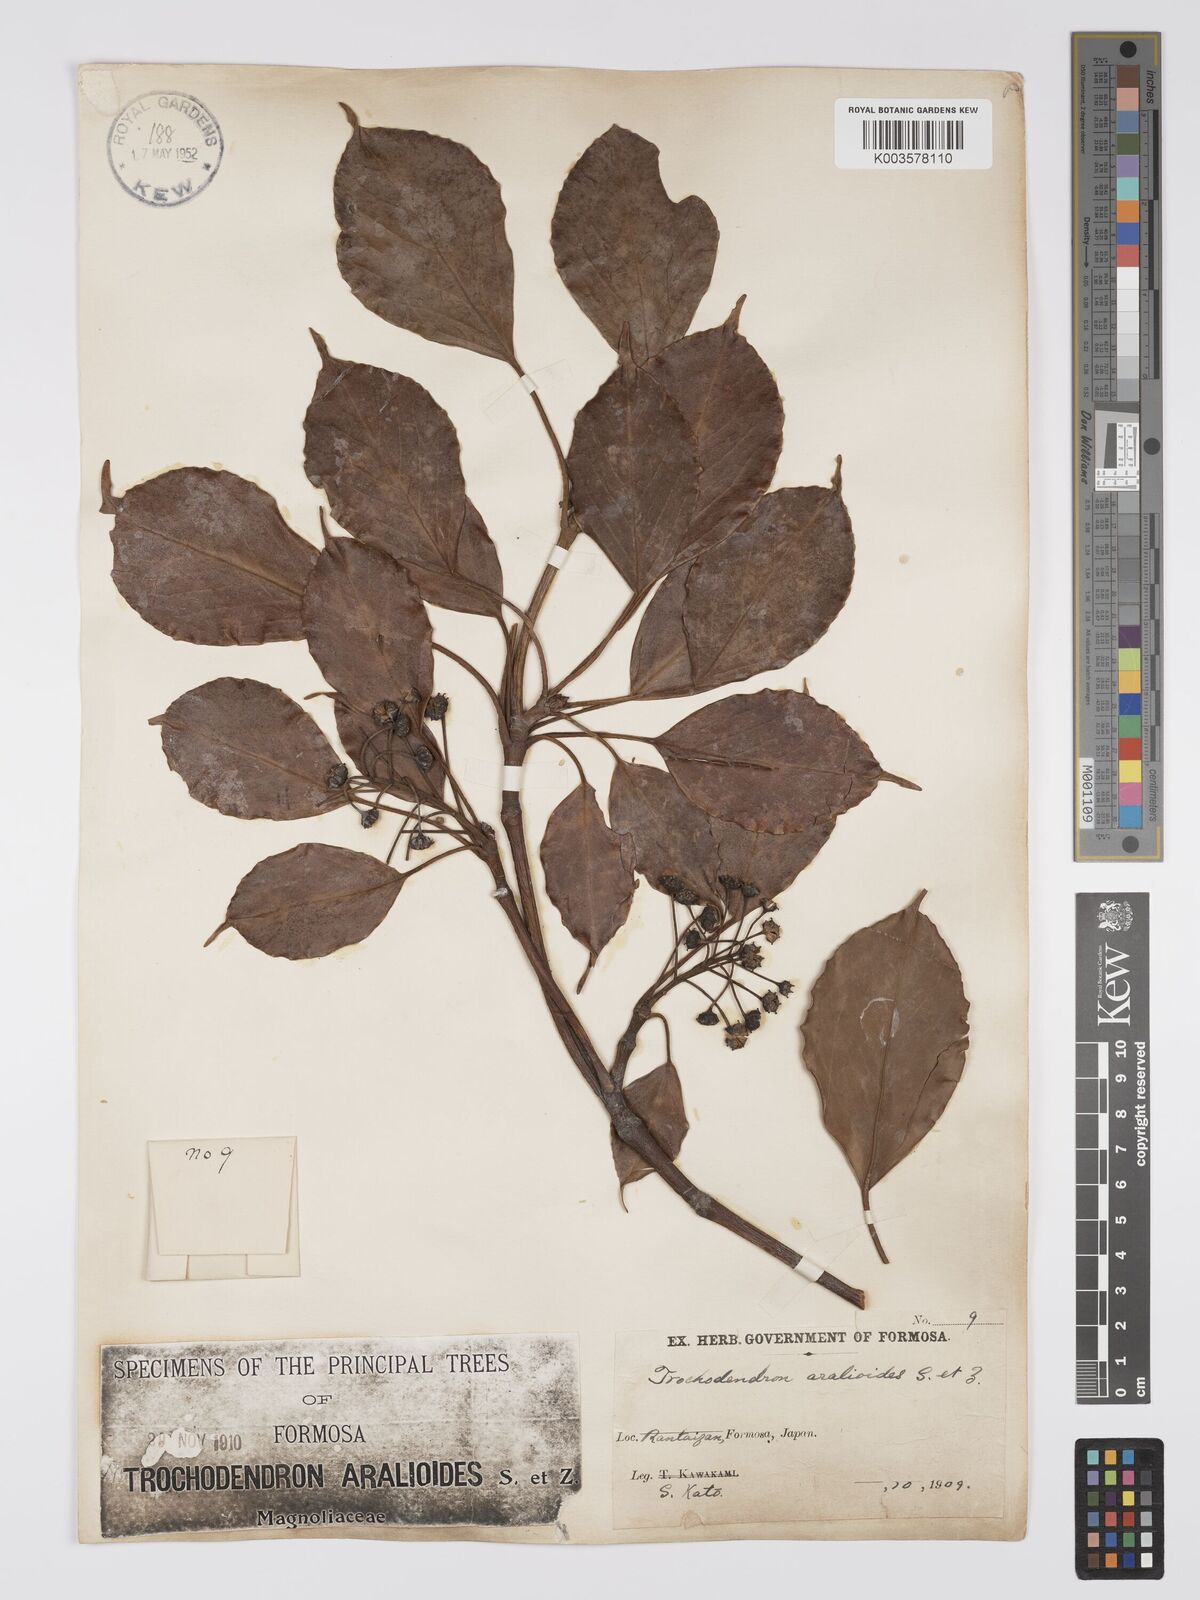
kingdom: Plantae
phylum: Tracheophyta
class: Magnoliopsida
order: Trochodendrales
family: Trochodendraceae
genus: Trochodendron
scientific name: Trochodendron
